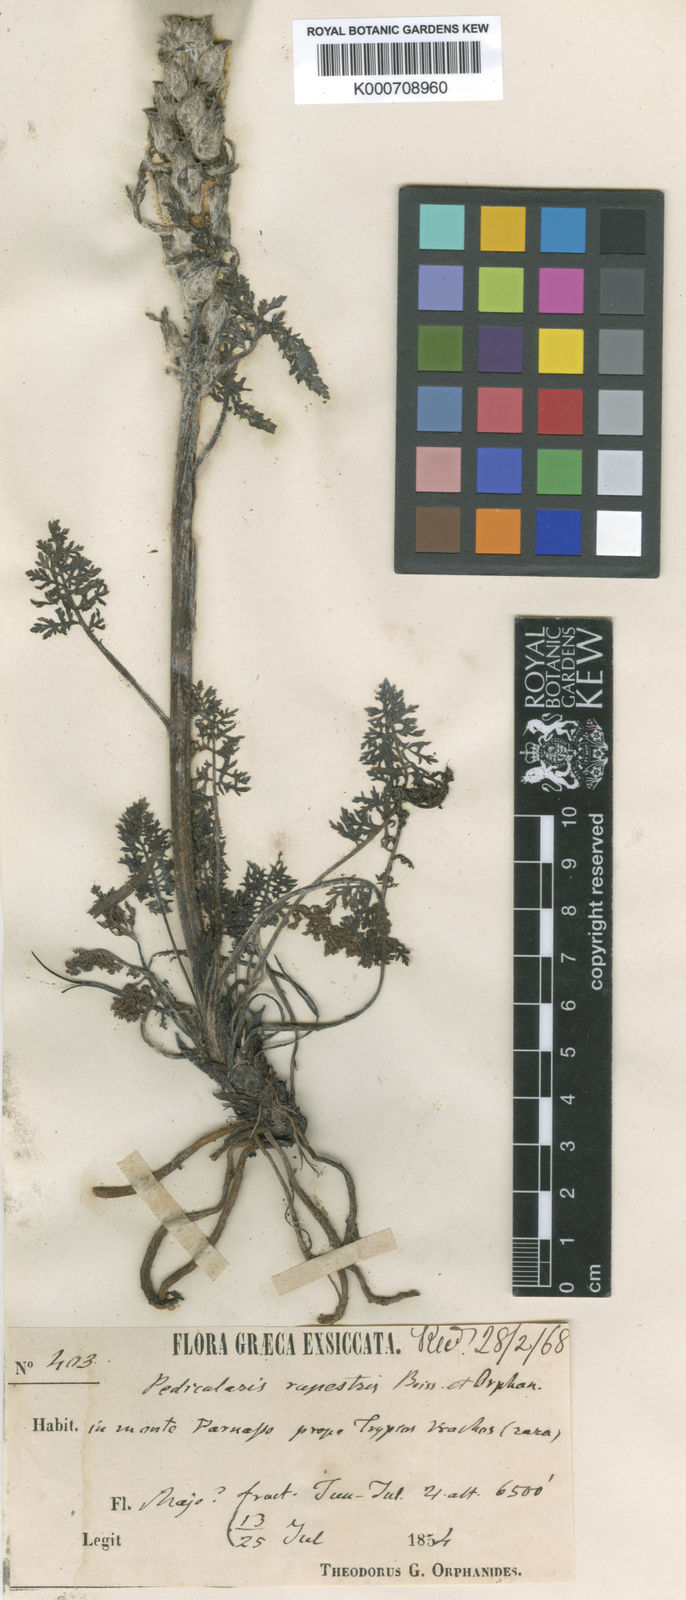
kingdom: Plantae
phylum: Tracheophyta
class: Magnoliopsida
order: Lamiales
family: Orobanchaceae
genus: Pedicularis
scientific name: Pedicularis graeca
